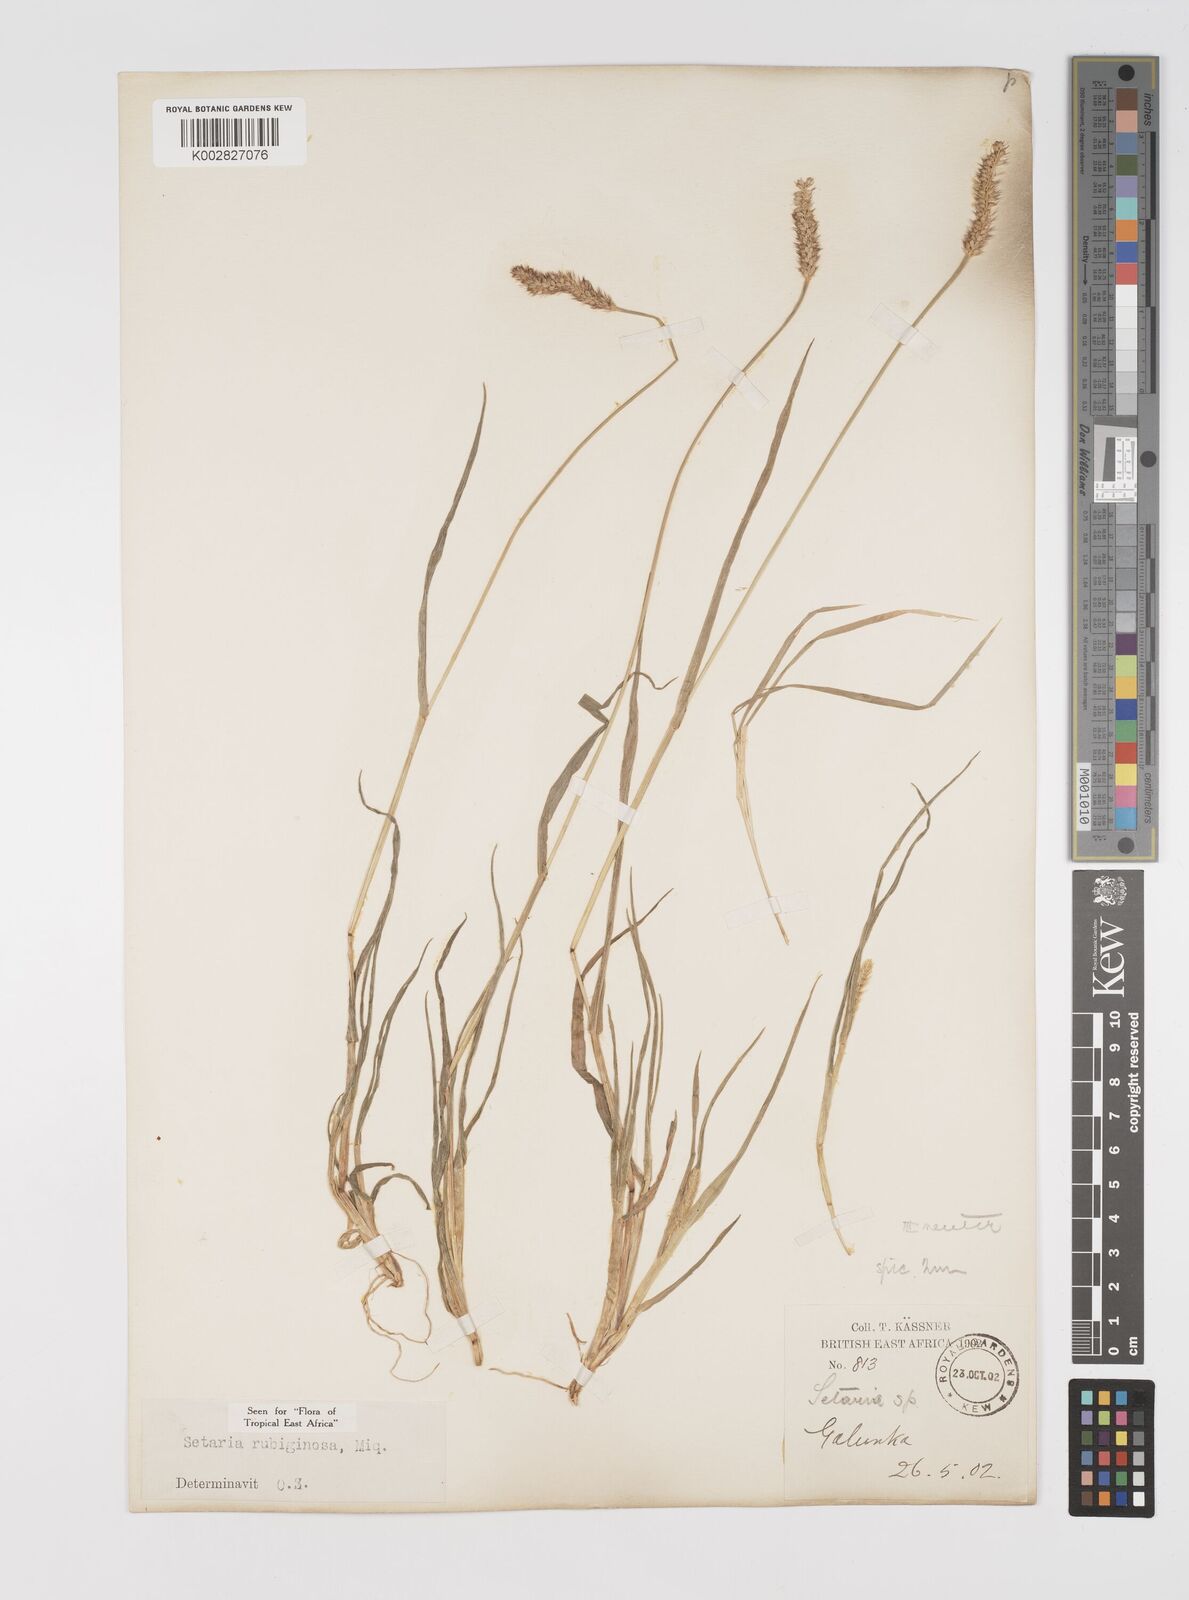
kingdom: Plantae
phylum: Tracheophyta
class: Liliopsida
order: Poales
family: Poaceae
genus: Setaria
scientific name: Setaria pumila
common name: Yellow bristle-grass
